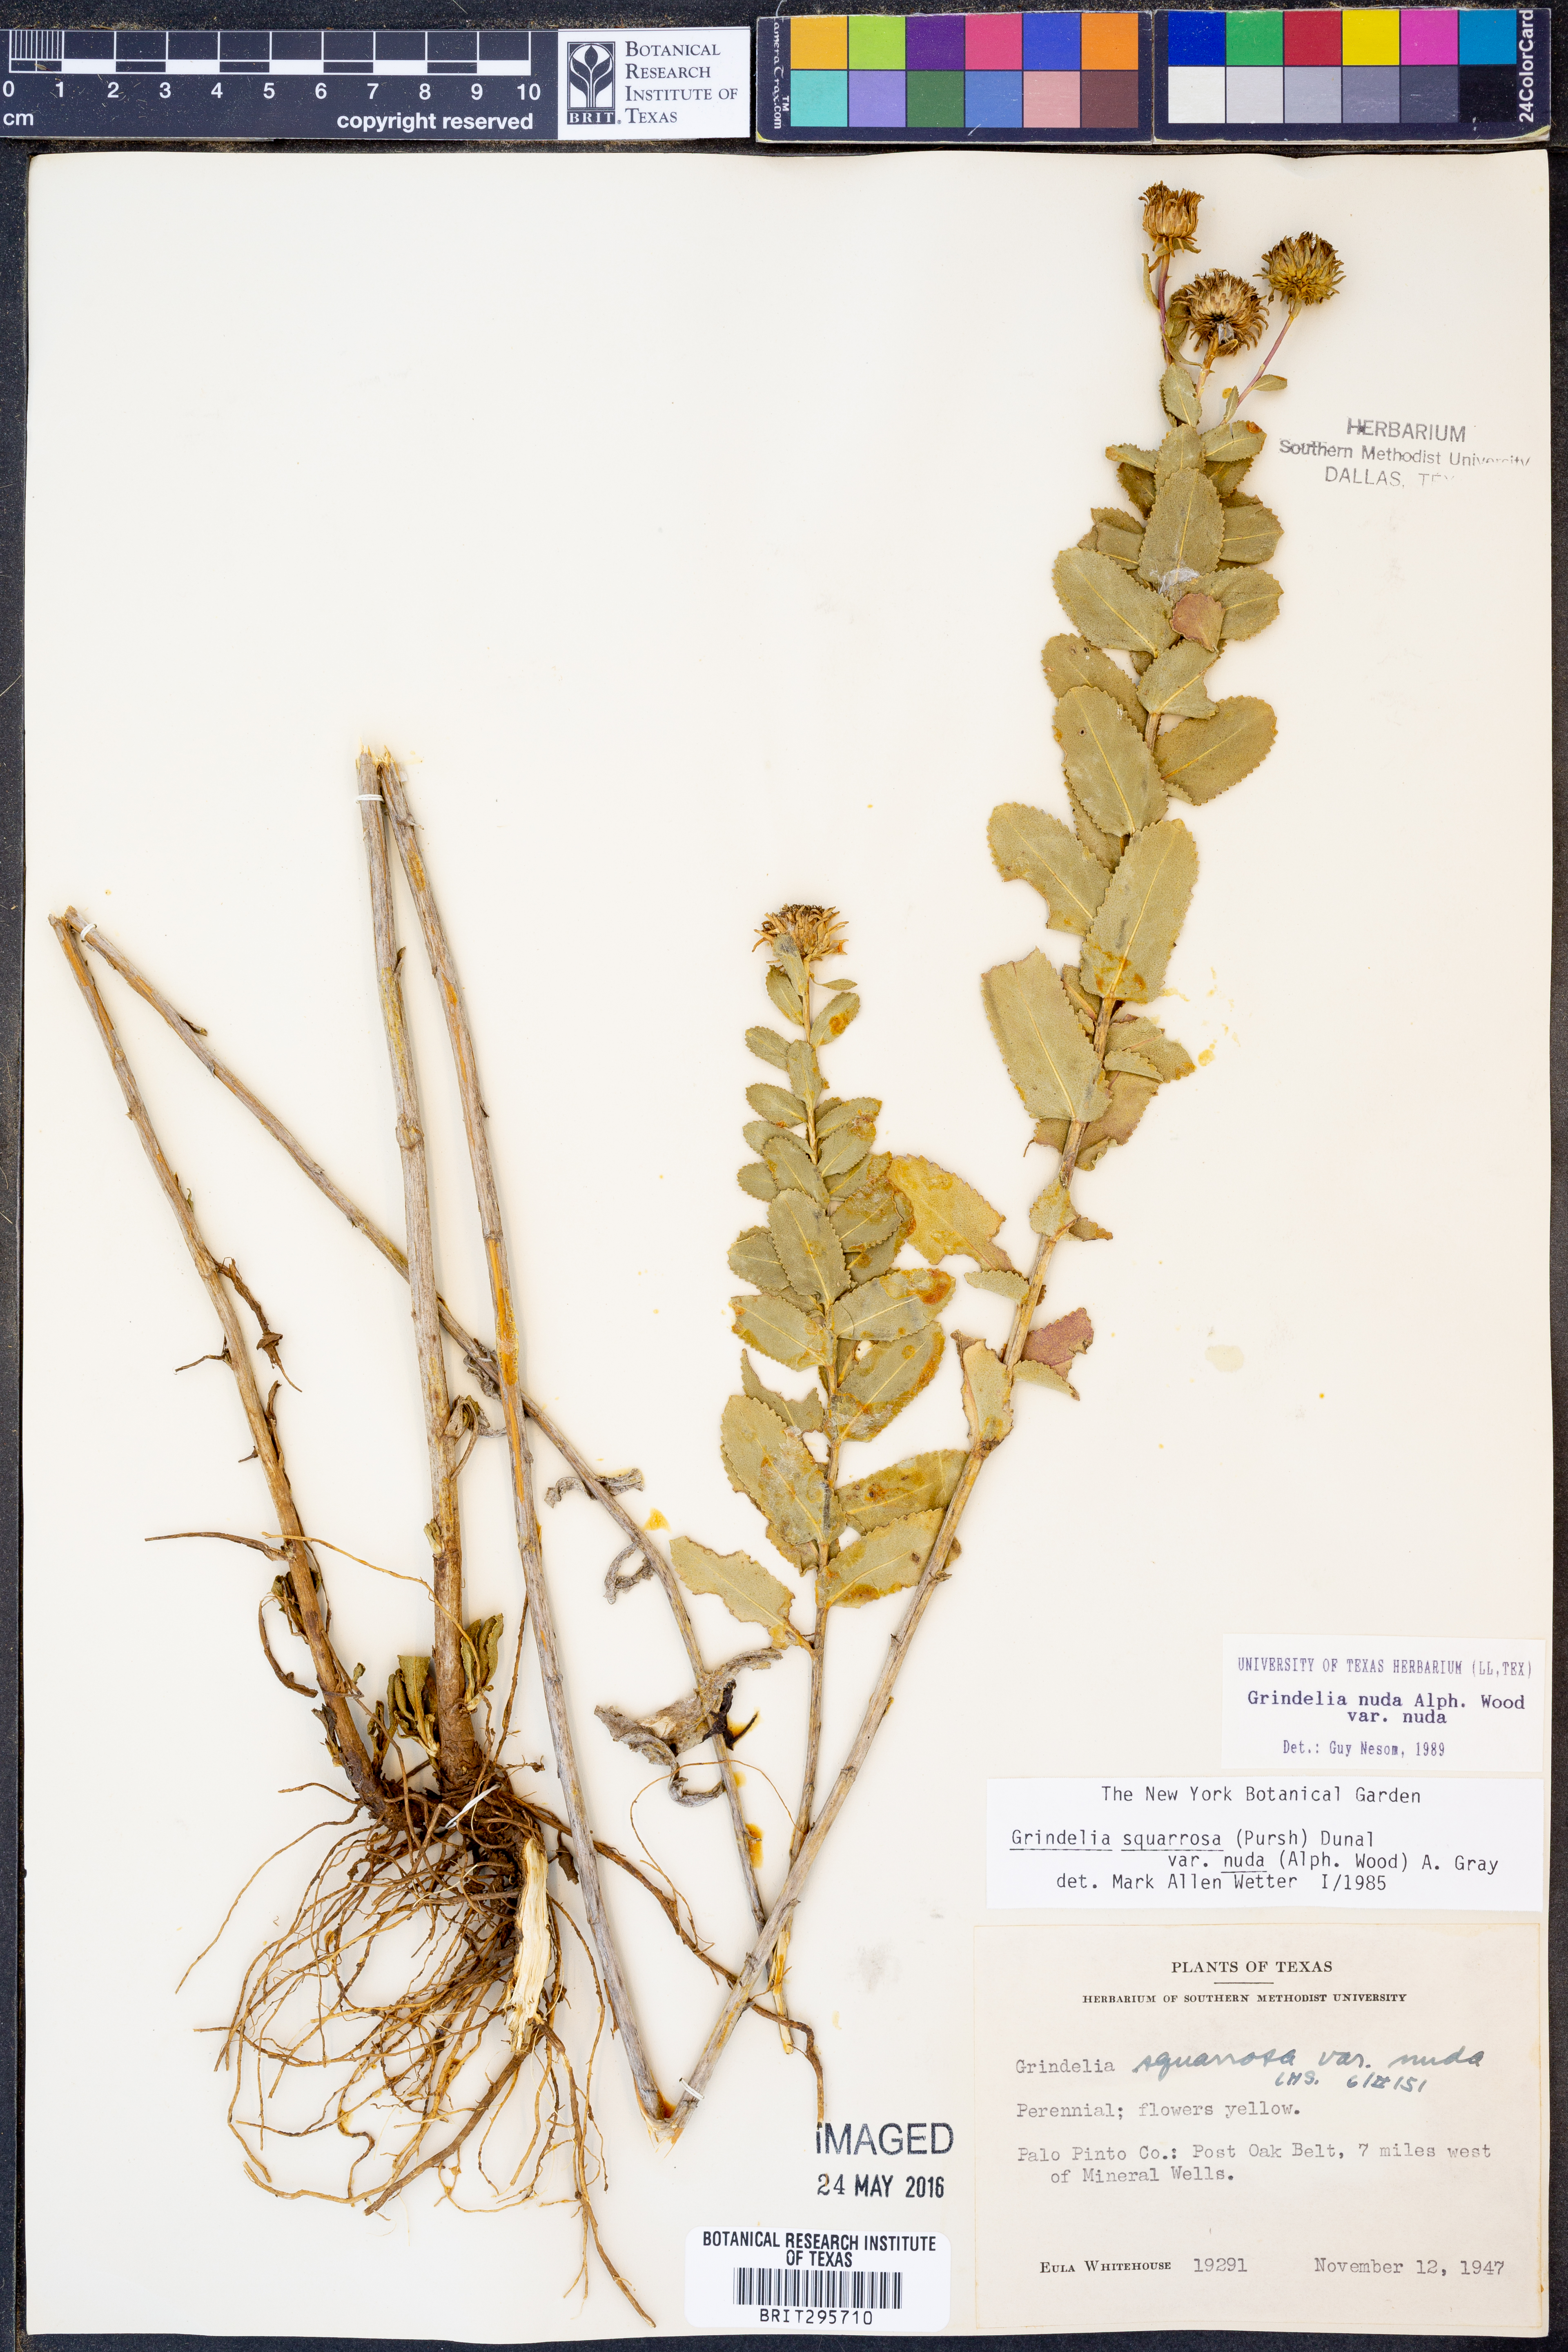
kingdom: Plantae
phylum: Tracheophyta
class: Magnoliopsida
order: Asterales
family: Asteraceae
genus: Grindelia
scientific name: Grindelia nuda
